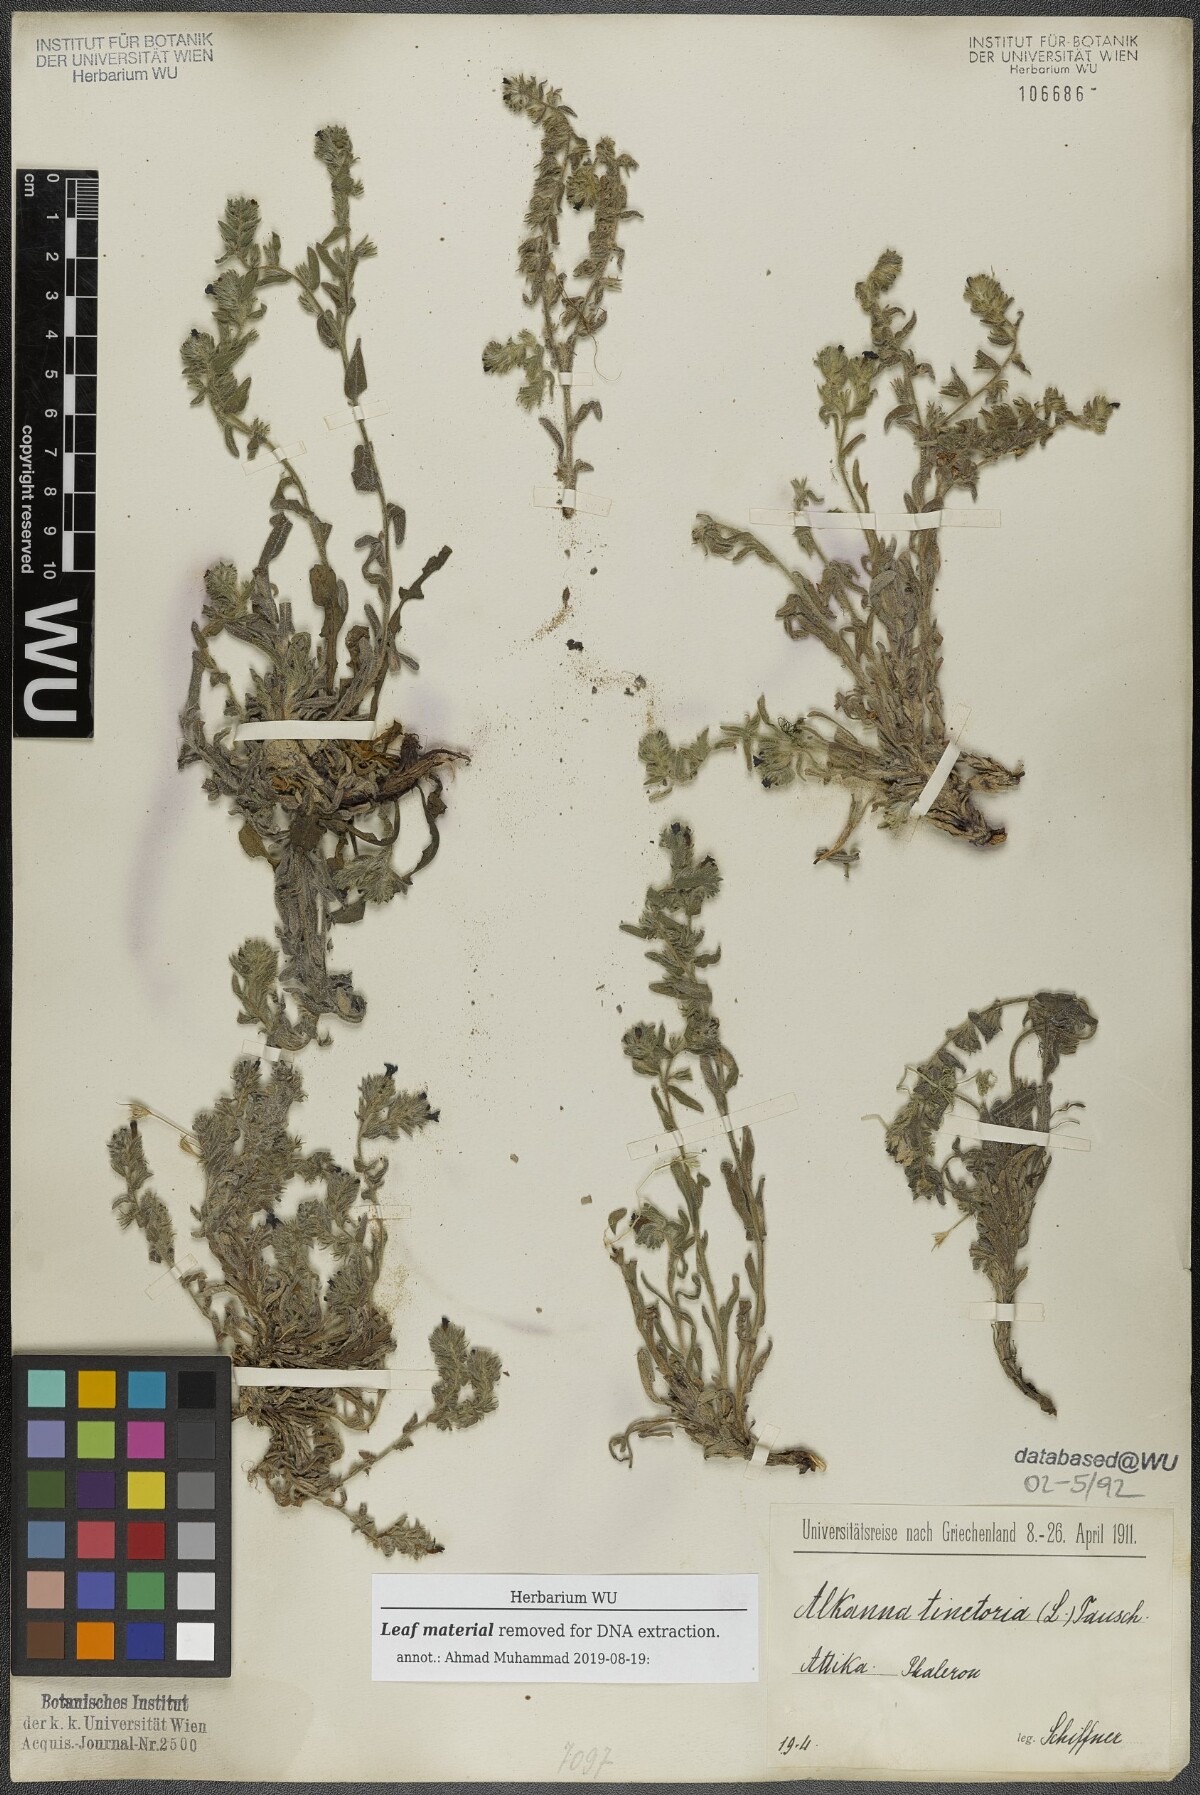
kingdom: Plantae
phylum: Tracheophyta
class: Magnoliopsida
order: Boraginales
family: Boraginaceae
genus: Alkanna
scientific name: Alkanna tinctoria
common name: Dyer's-alkanet
